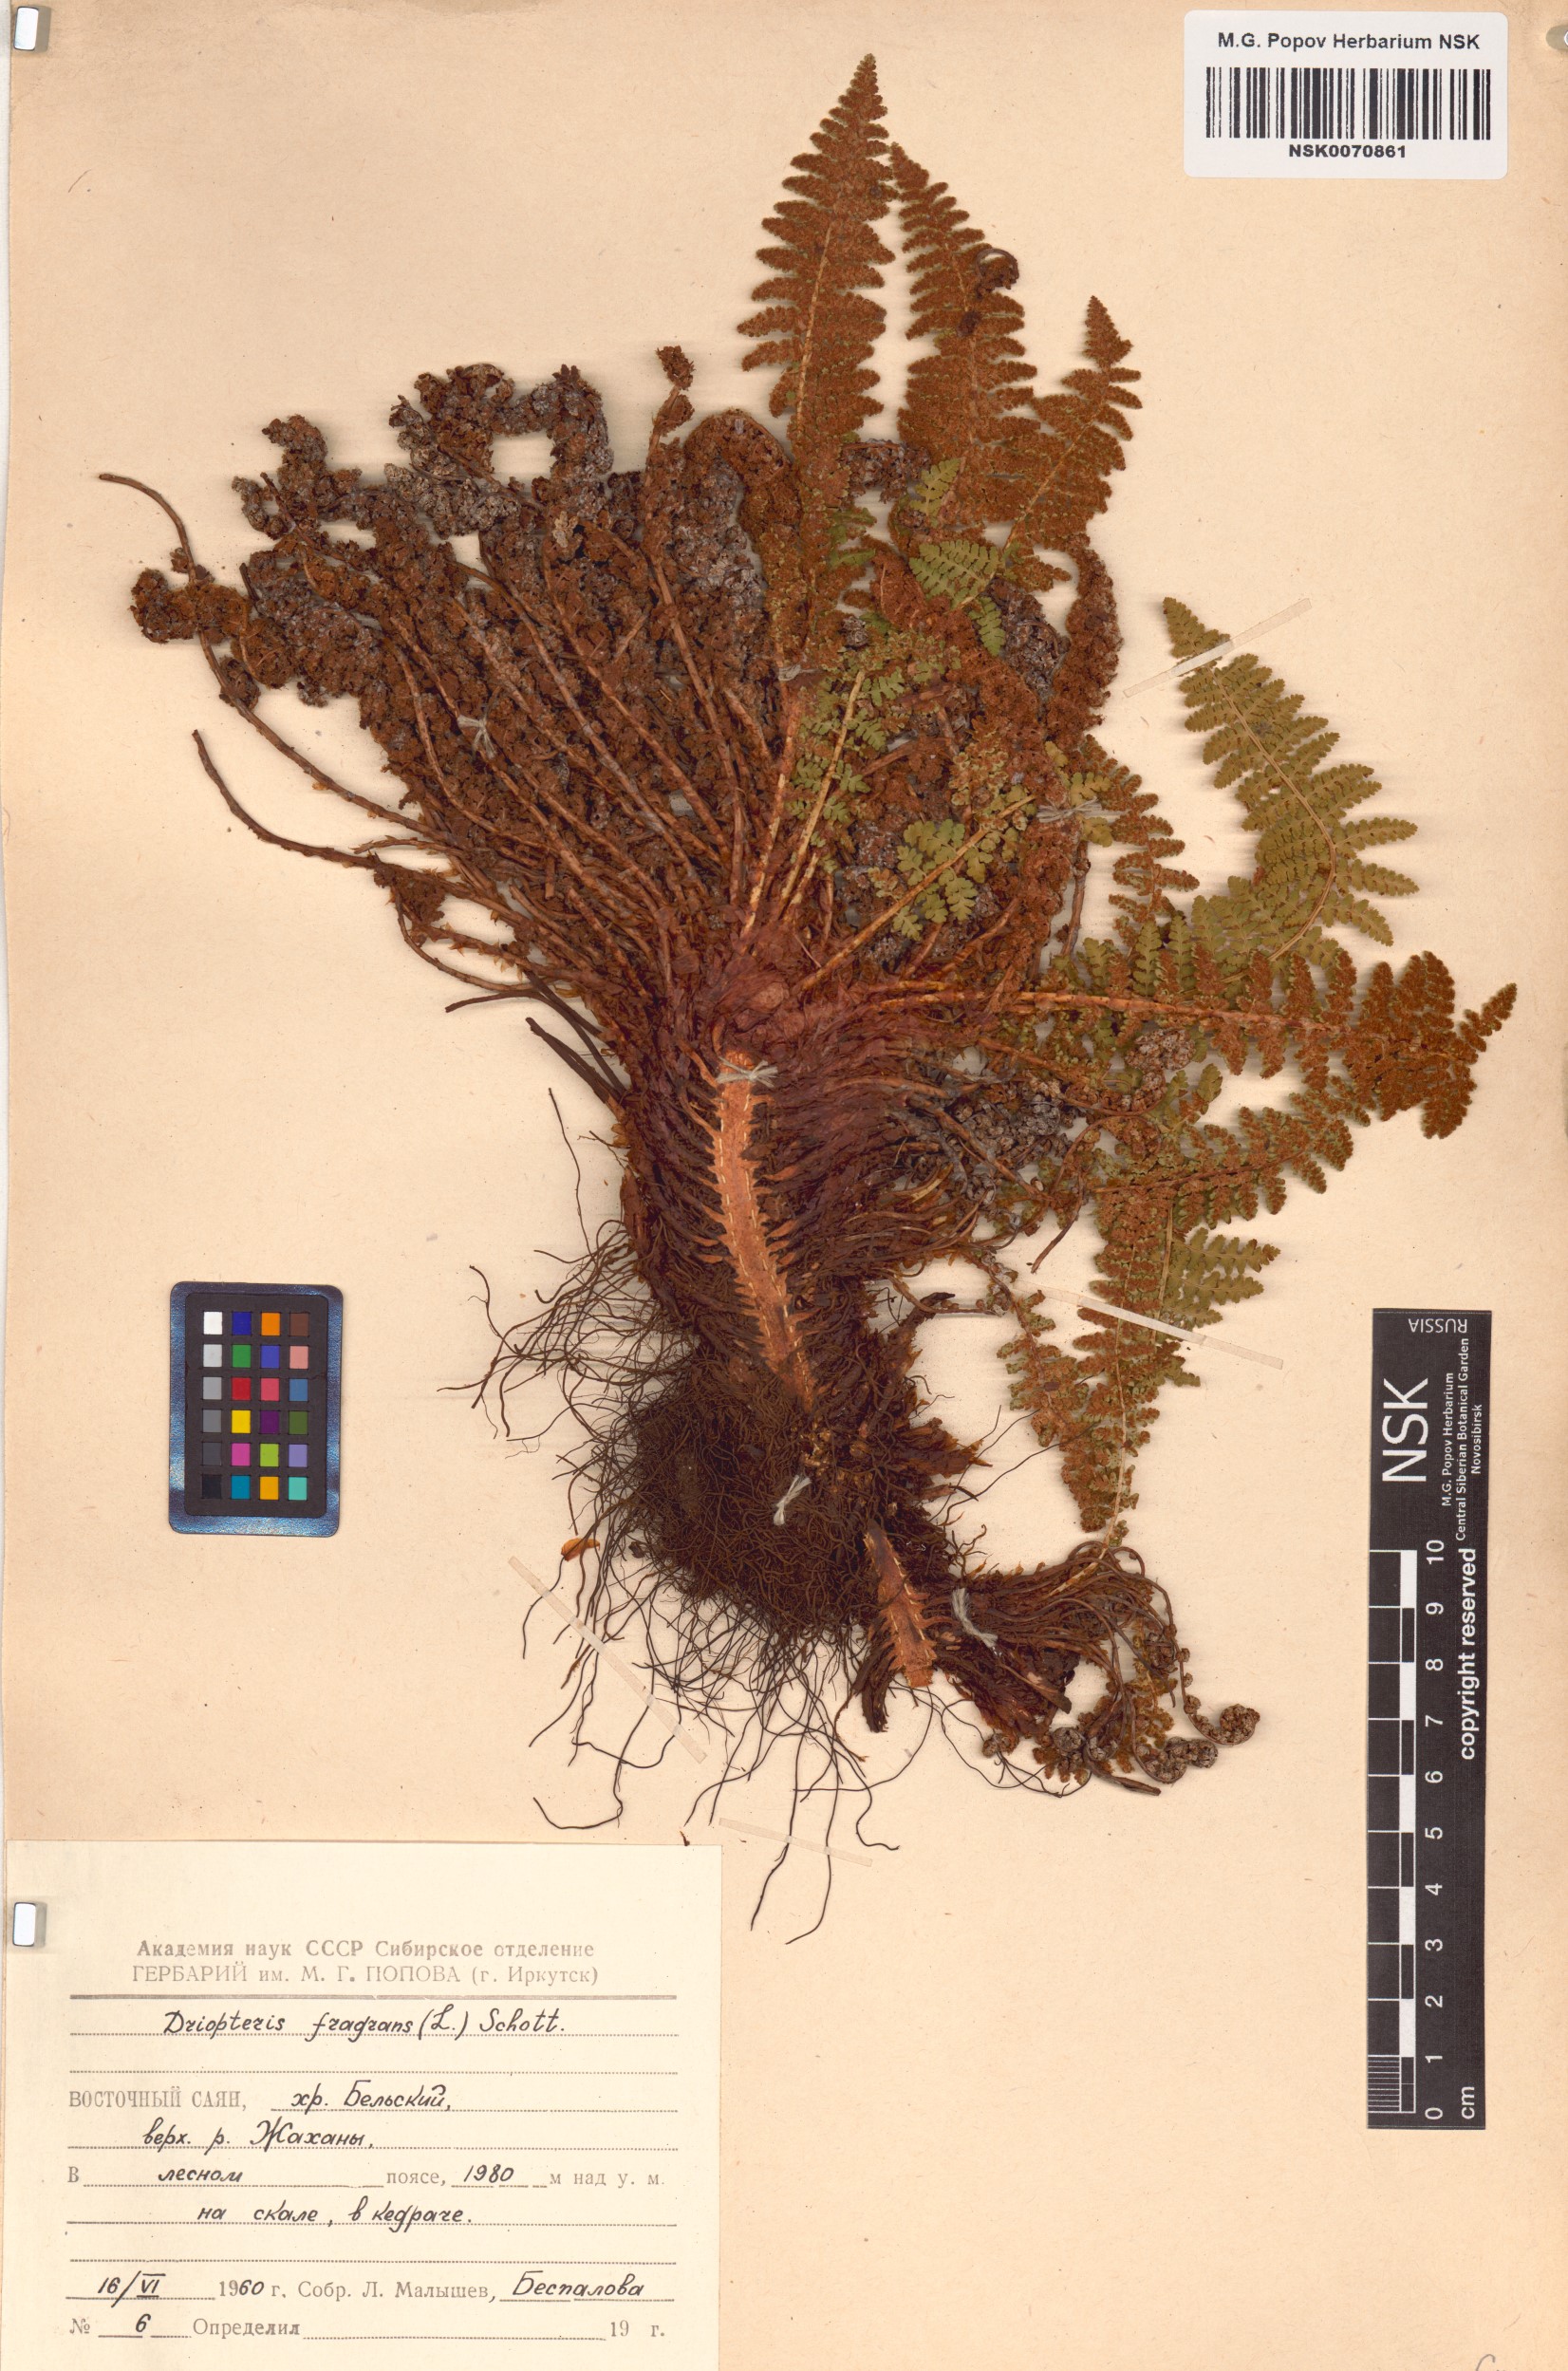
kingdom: Plantae
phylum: Tracheophyta
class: Polypodiopsida
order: Polypodiales
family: Dryopteridaceae
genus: Dryopteris
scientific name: Dryopteris fragrans
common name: Fragrant wood fern
